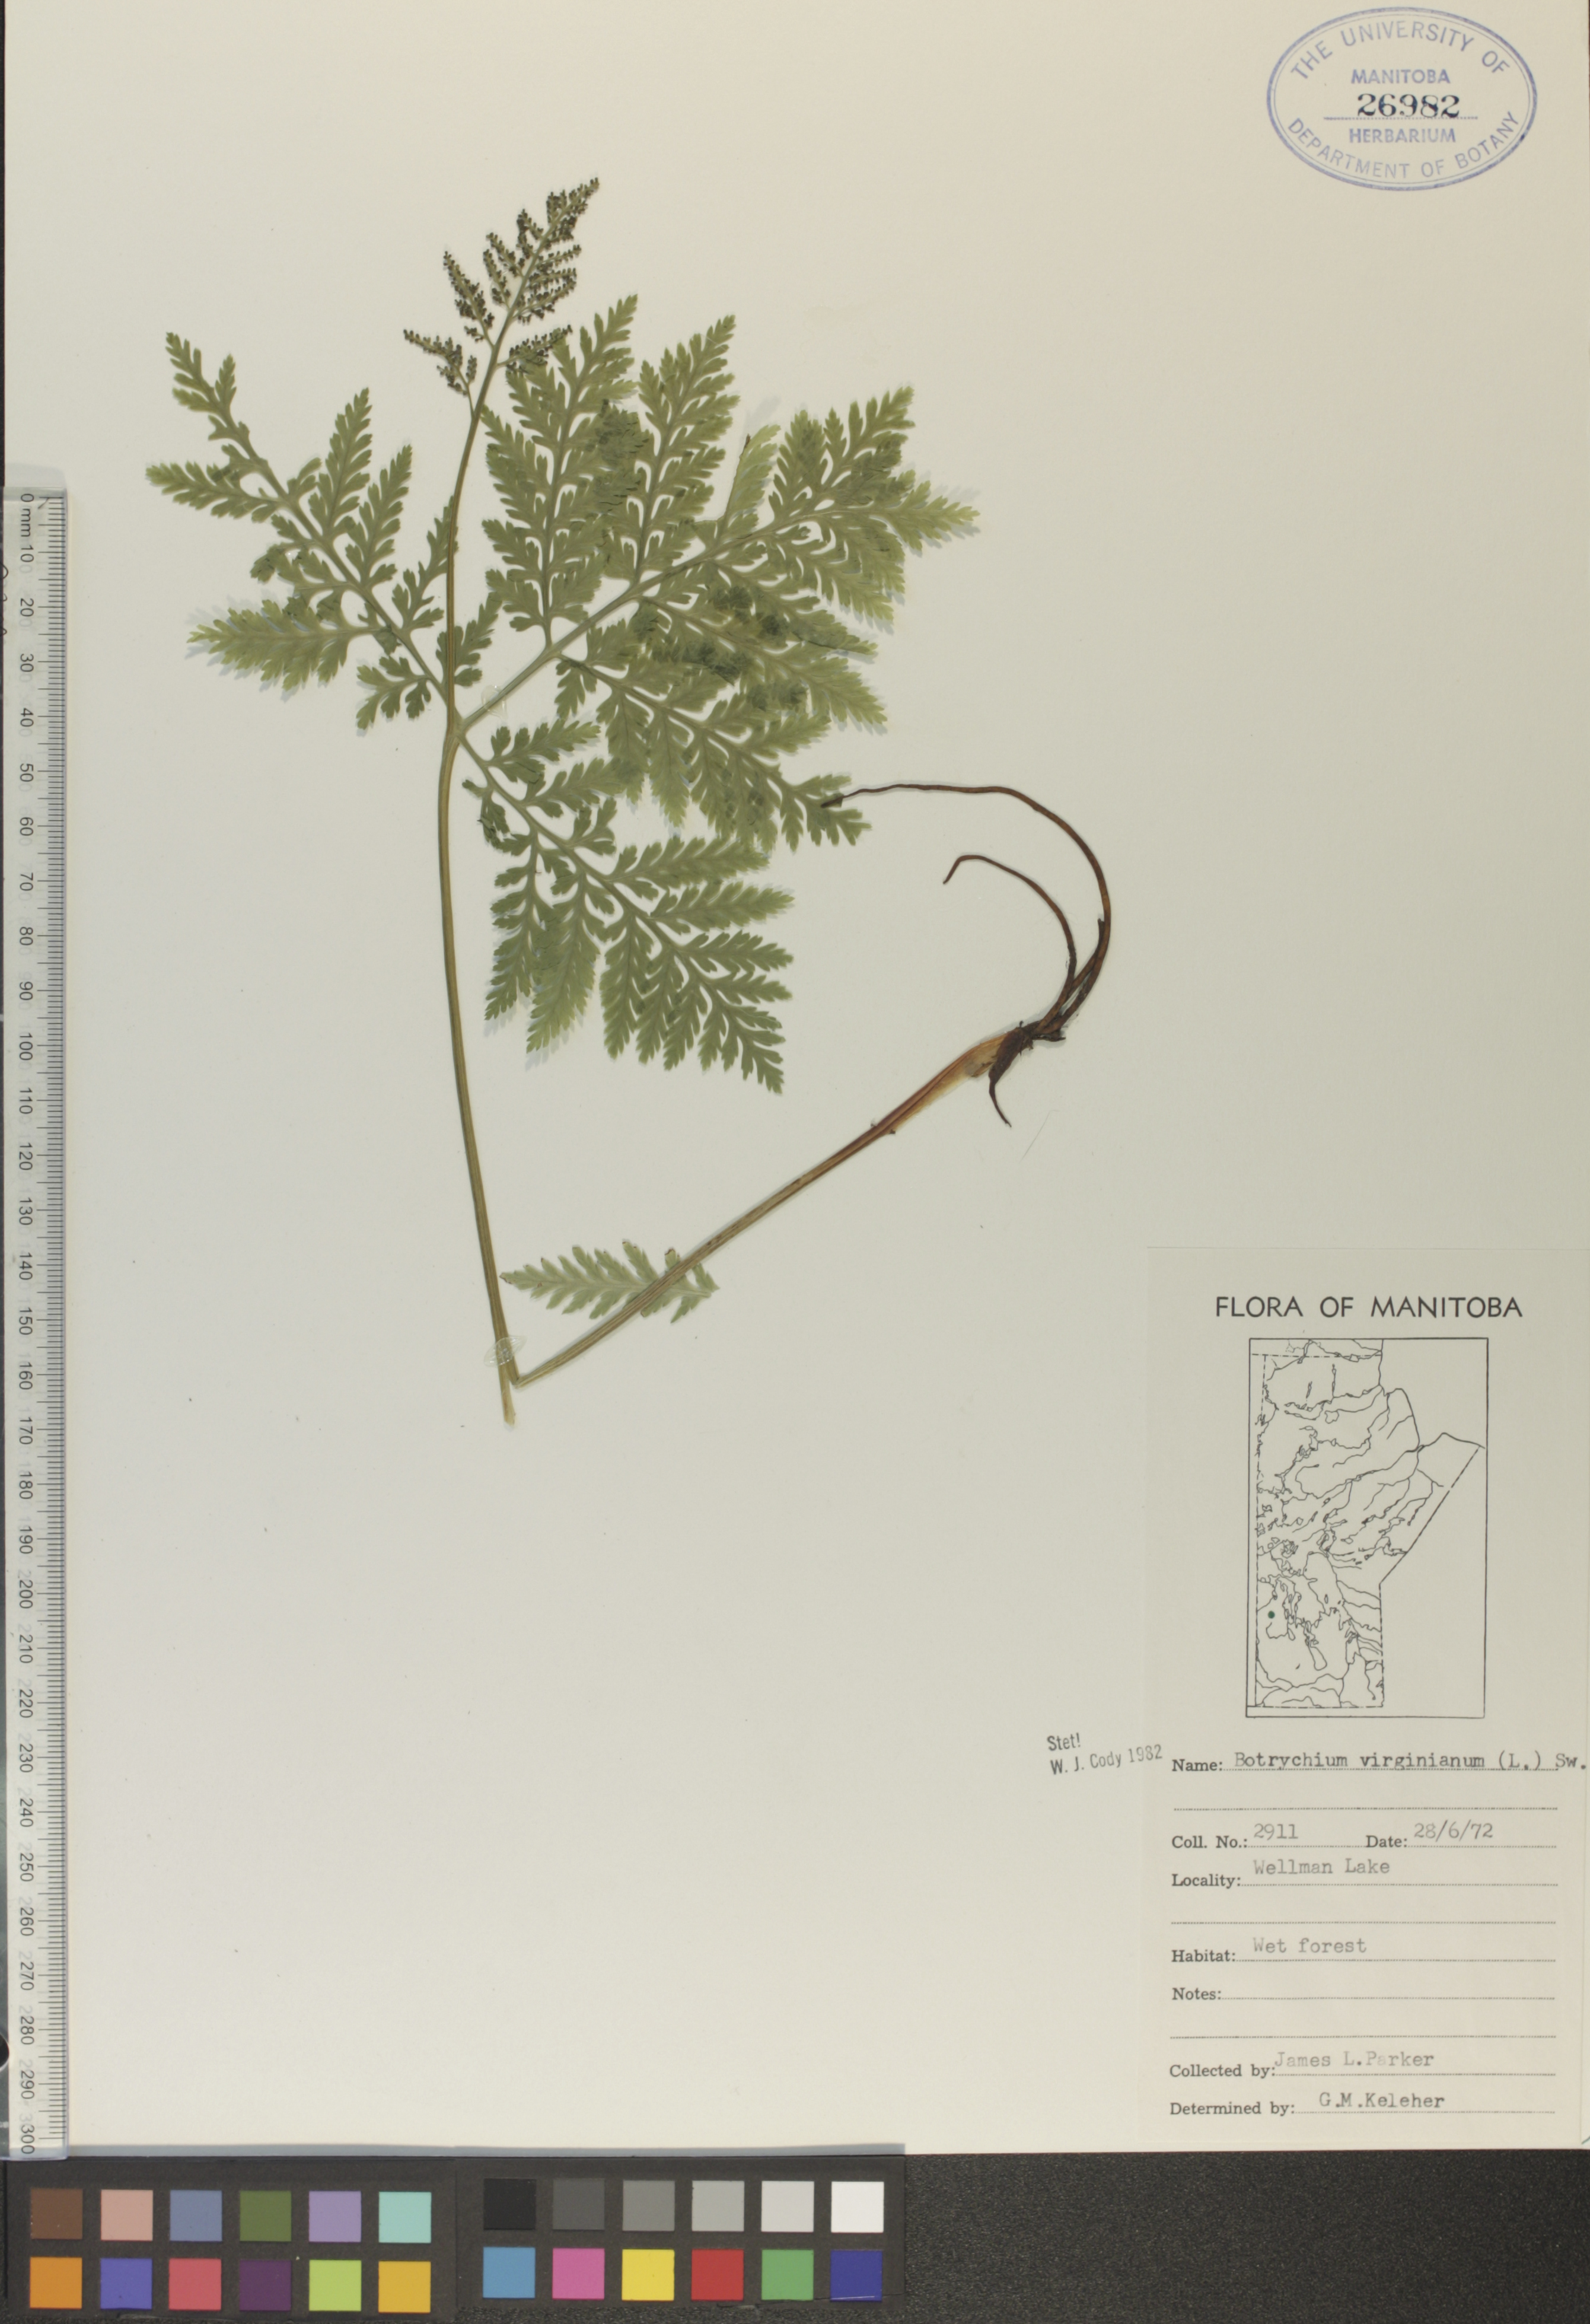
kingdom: Plantae
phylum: Tracheophyta
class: Polypodiopsida
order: Ophioglossales
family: Ophioglossaceae
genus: Botrypus
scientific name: Botrypus virginianus
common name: Common grapefern
